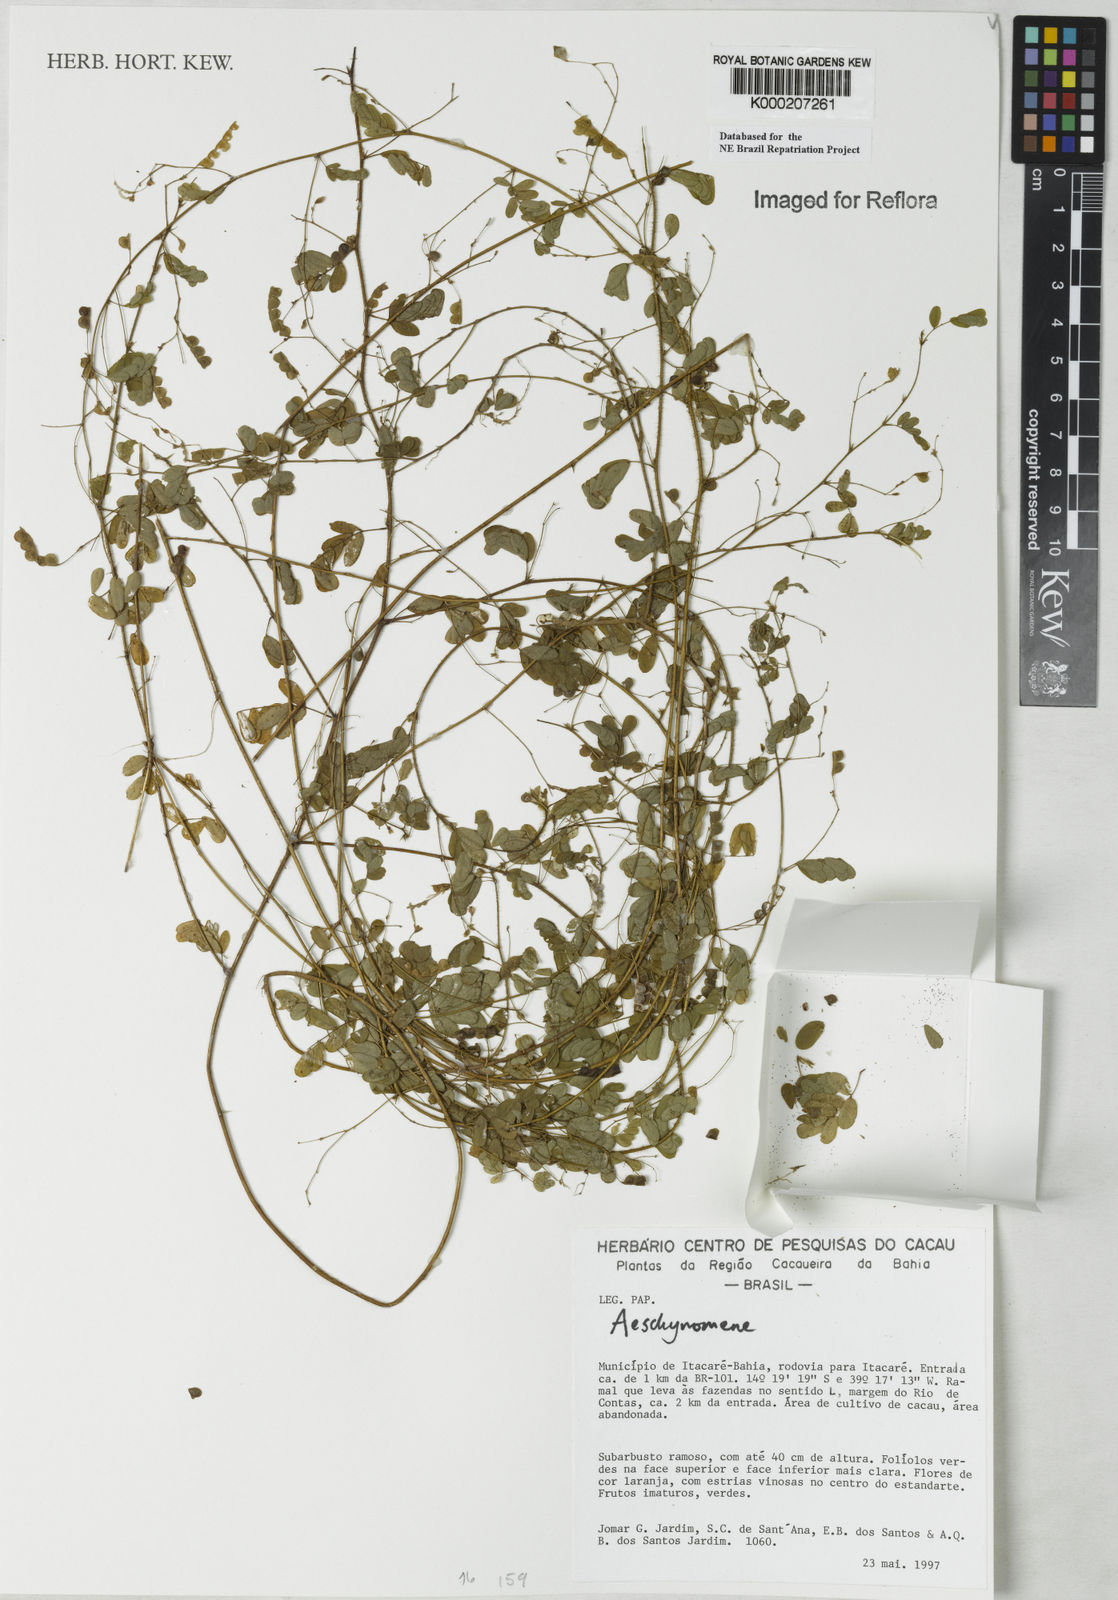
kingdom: Plantae
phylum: Tracheophyta
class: Magnoliopsida
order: Fabales
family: Fabaceae
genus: Aeschynomene
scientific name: Aeschynomene
